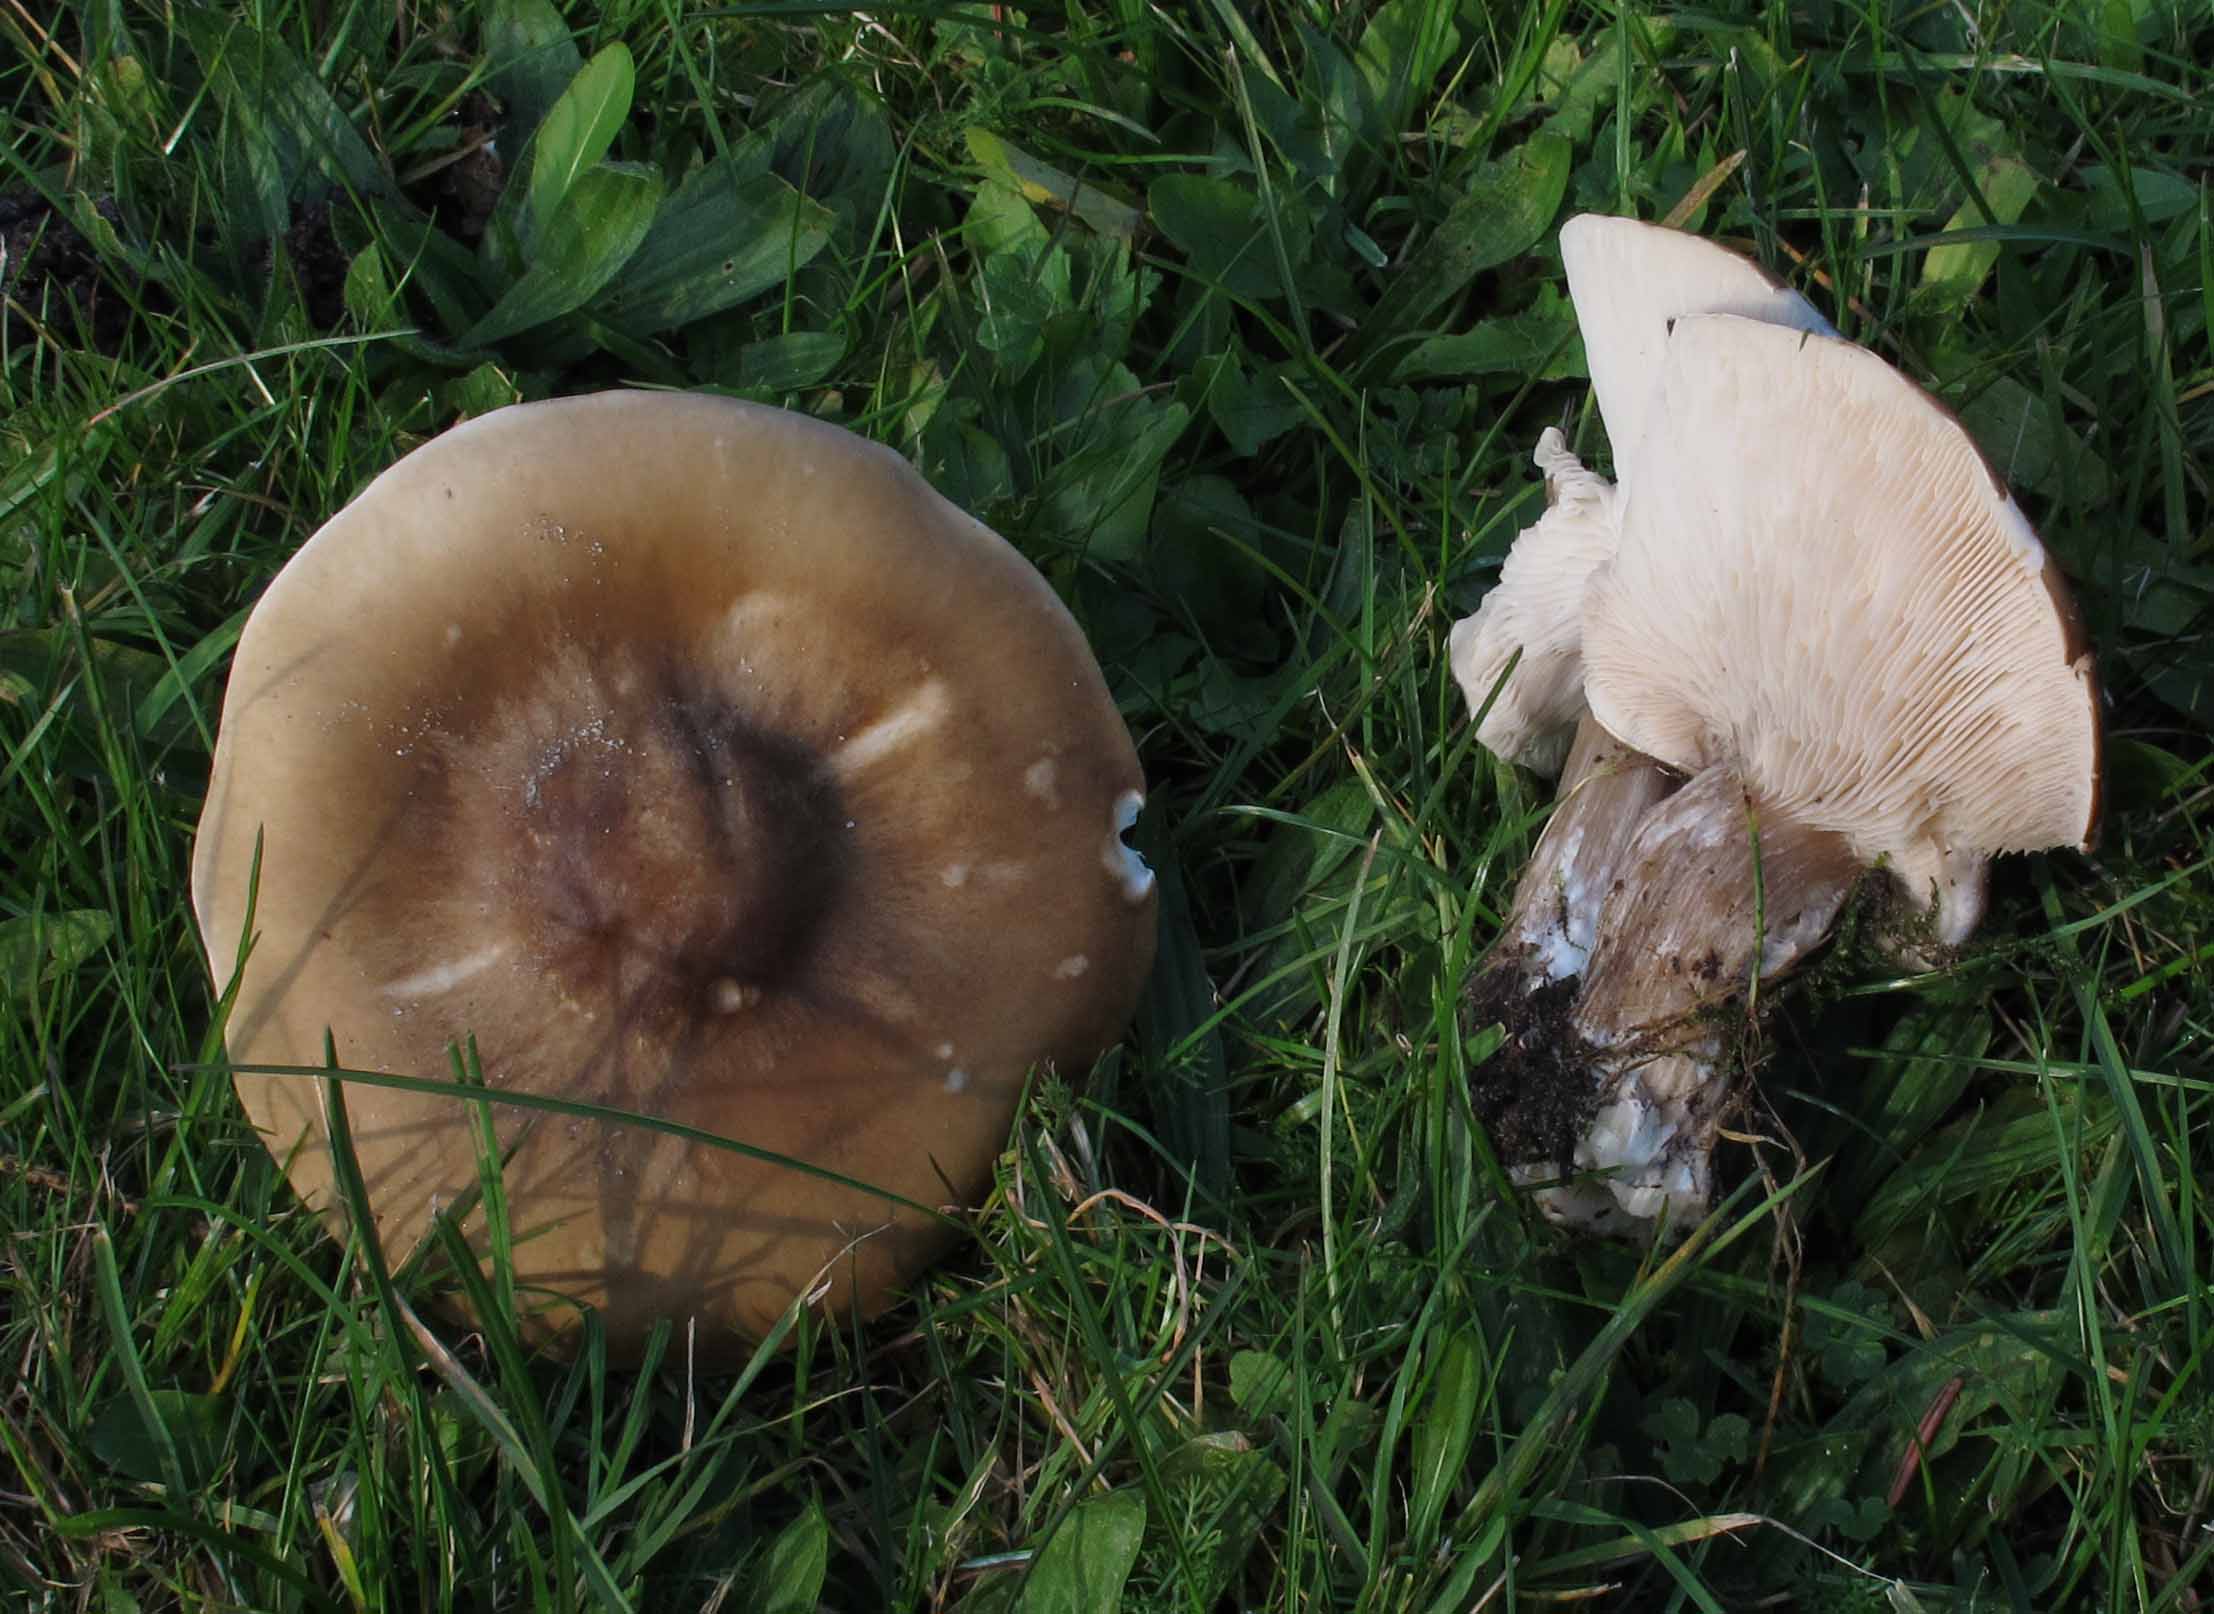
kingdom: Fungi
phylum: Basidiomycota
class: Agaricomycetes
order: Agaricales
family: Tricholomataceae
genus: Melanoleuca
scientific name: Melanoleuca grammopodia
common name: stribestokket munkehat
